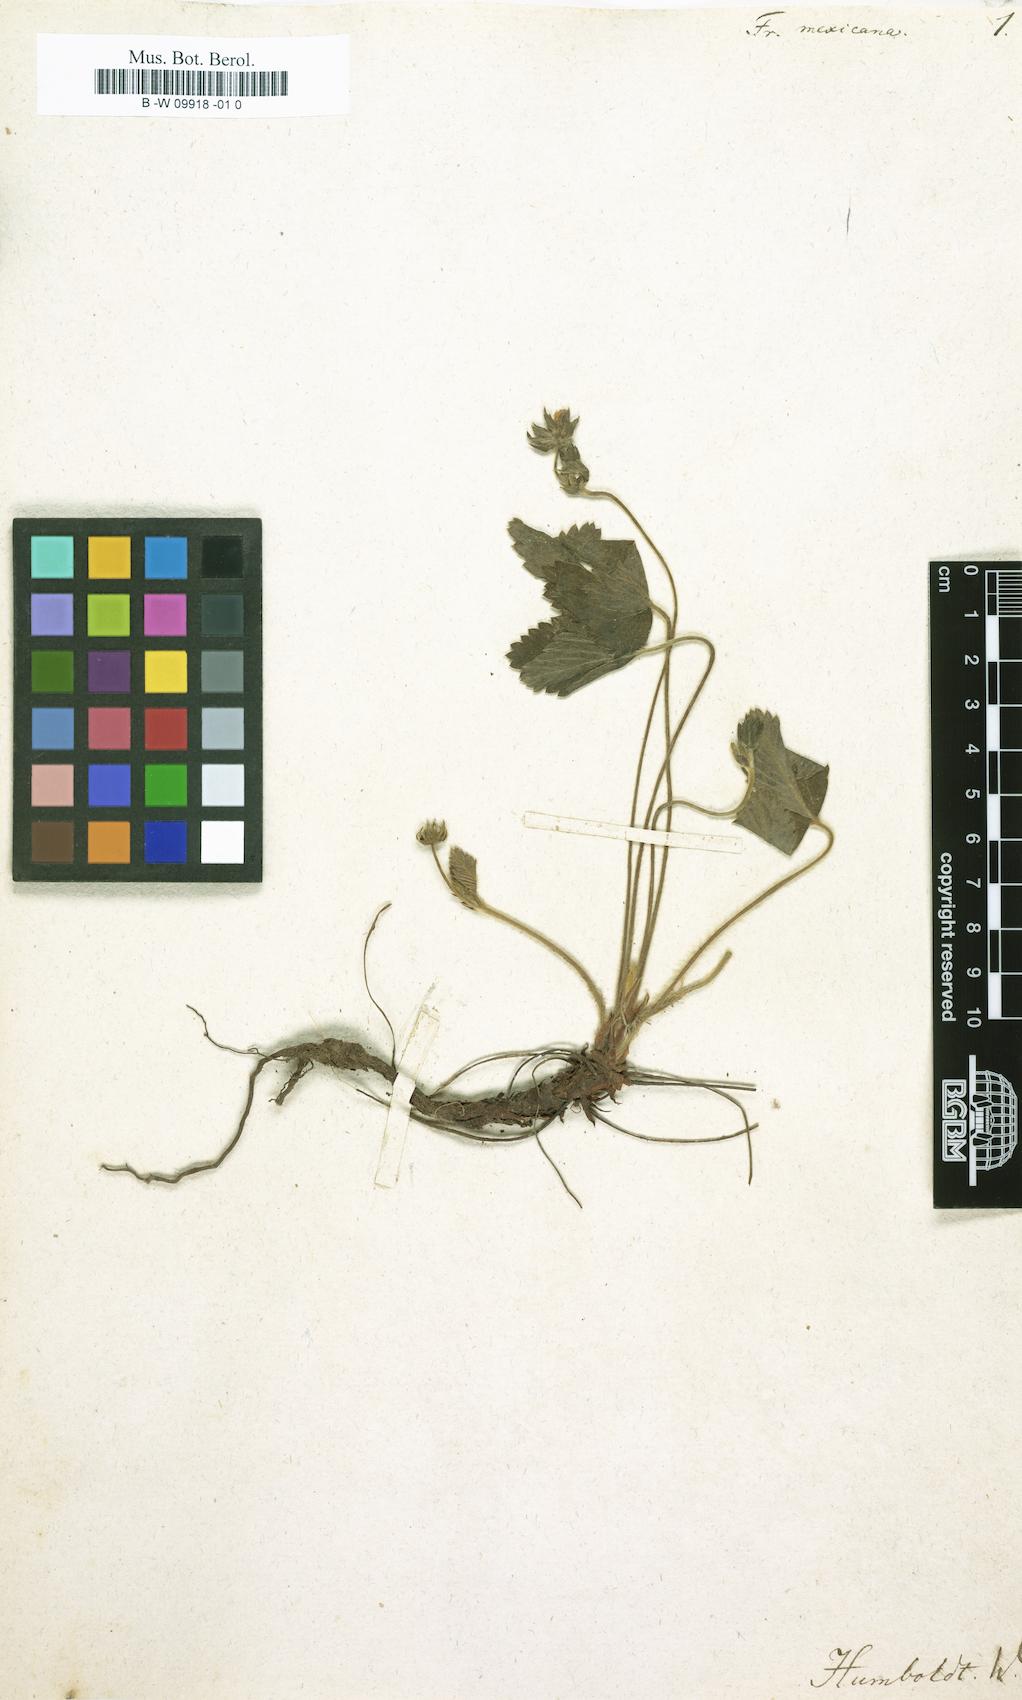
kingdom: Plantae
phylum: Tracheophyta
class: Magnoliopsida
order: Rosales
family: Rosaceae
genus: Fragaria
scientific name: Fragaria vesca
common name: Wild strawberry
